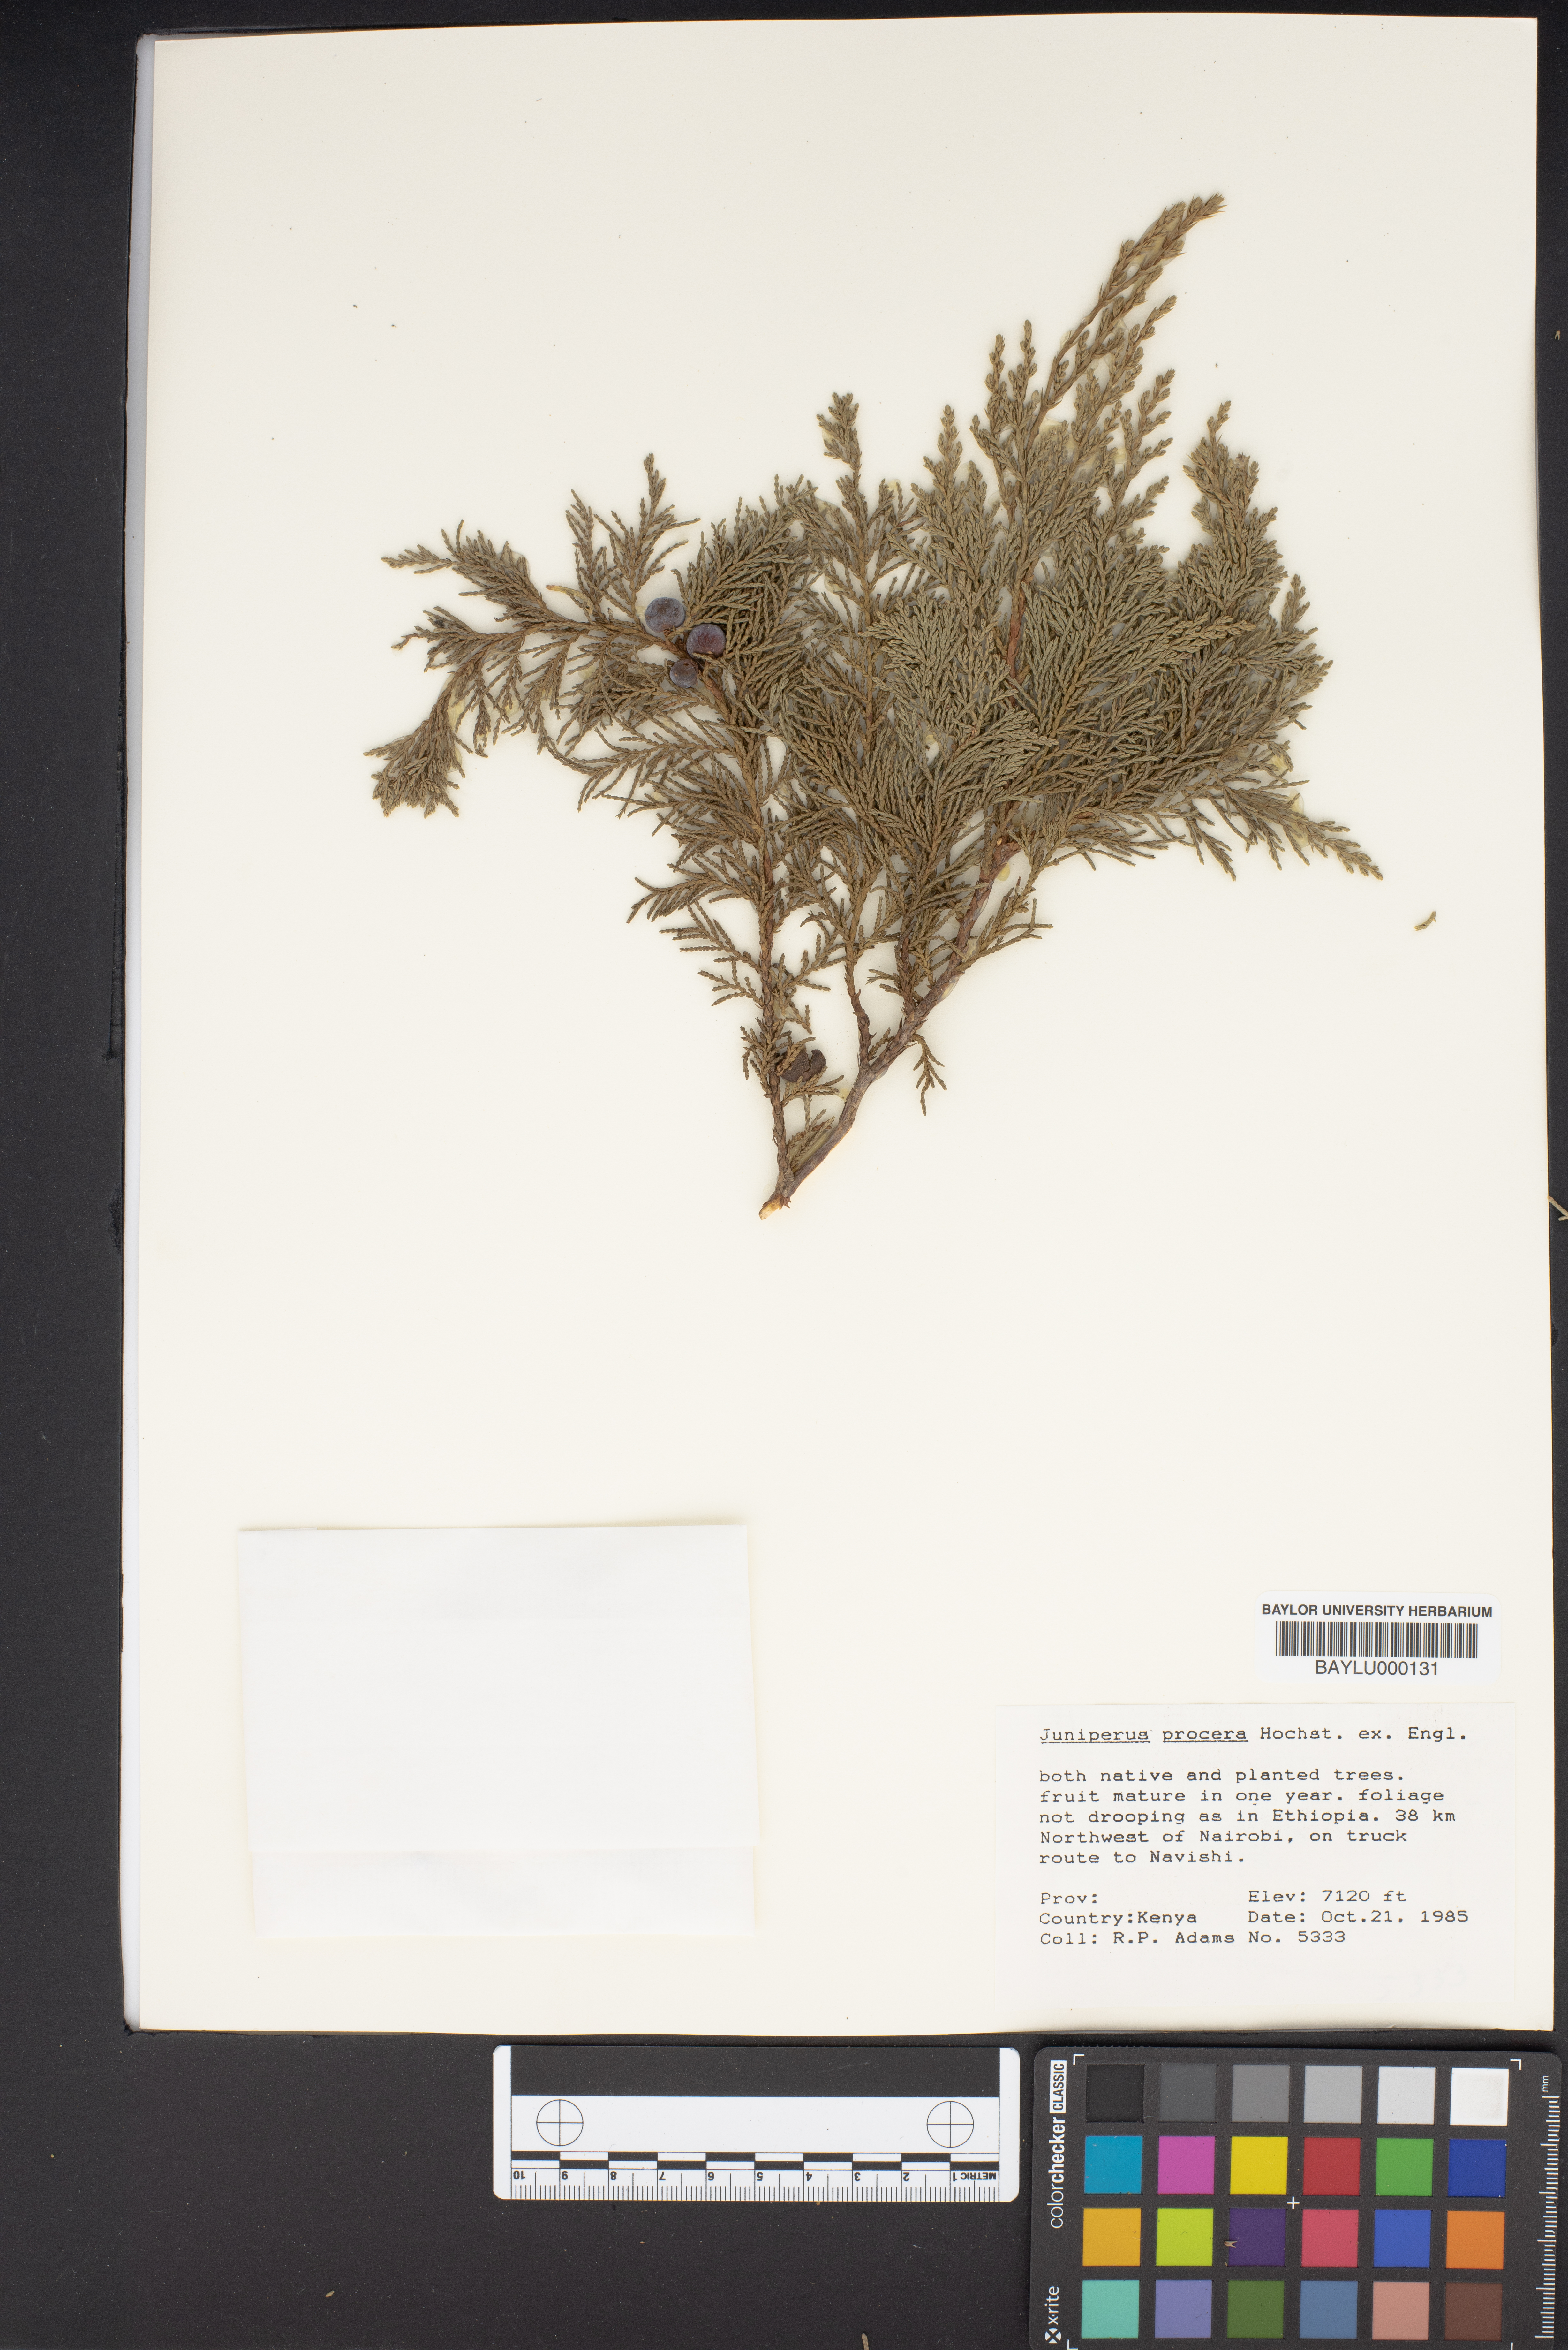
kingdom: Plantae
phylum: Tracheophyta
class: Pinopsida
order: Pinales
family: Cupressaceae
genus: Juniperus
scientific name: Juniperus procera
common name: African juniper
